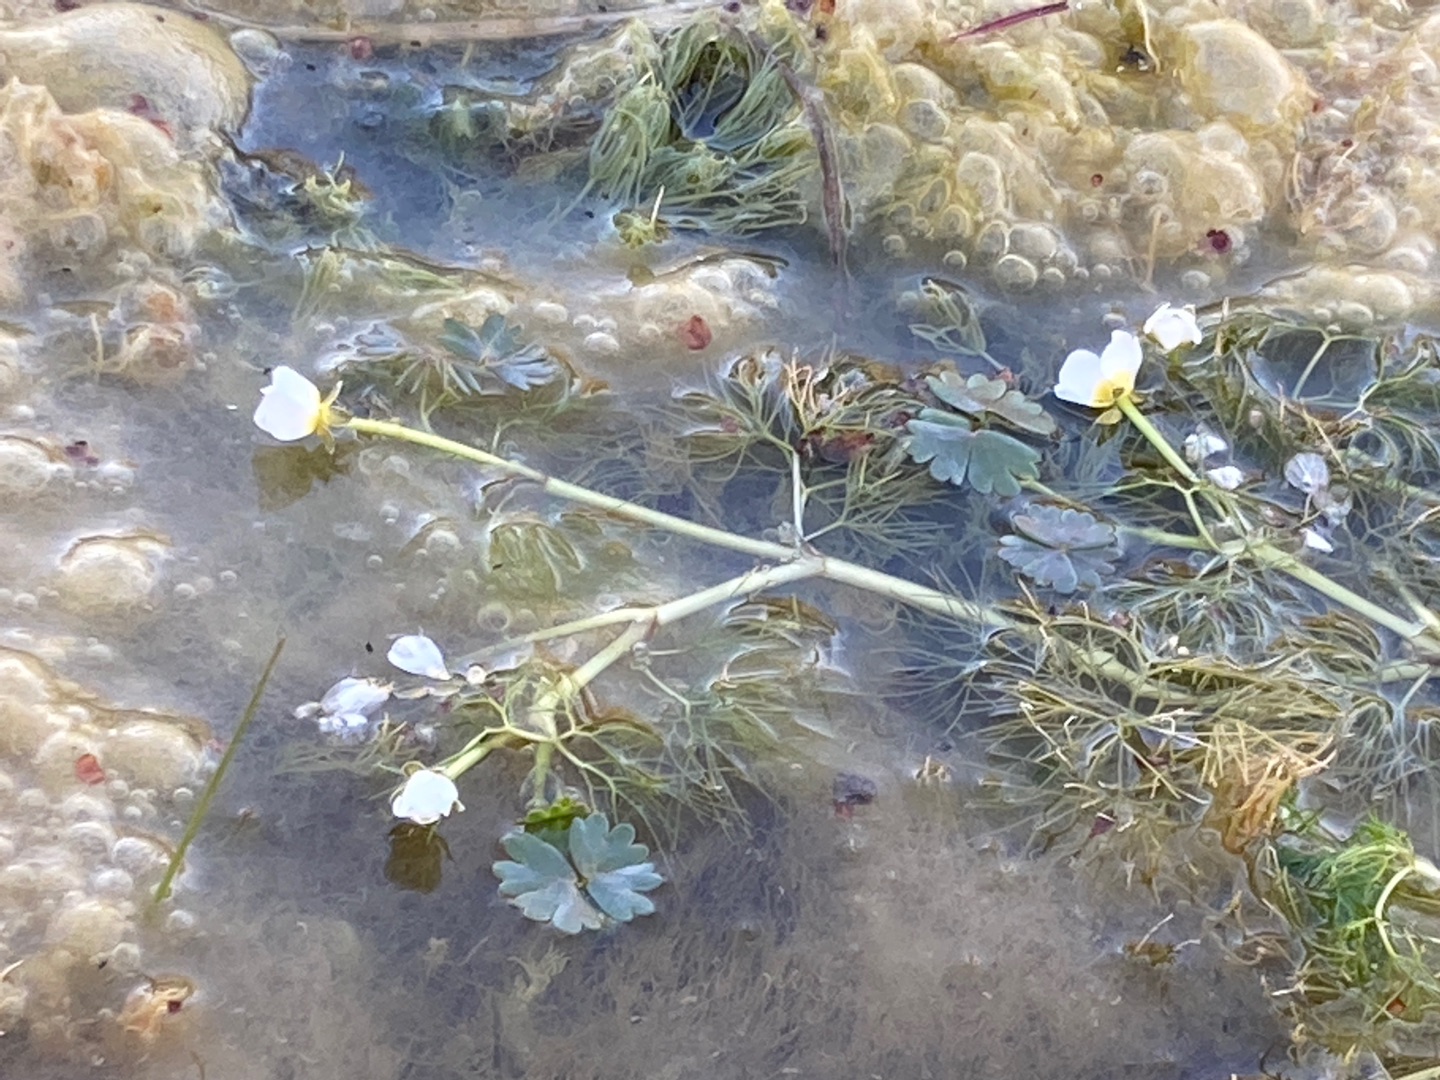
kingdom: Plantae
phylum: Tracheophyta
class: Magnoliopsida
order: Ranunculales
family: Ranunculaceae
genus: Ranunculus
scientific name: Ranunculus peltatus
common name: Storblomstret vandranunkel
